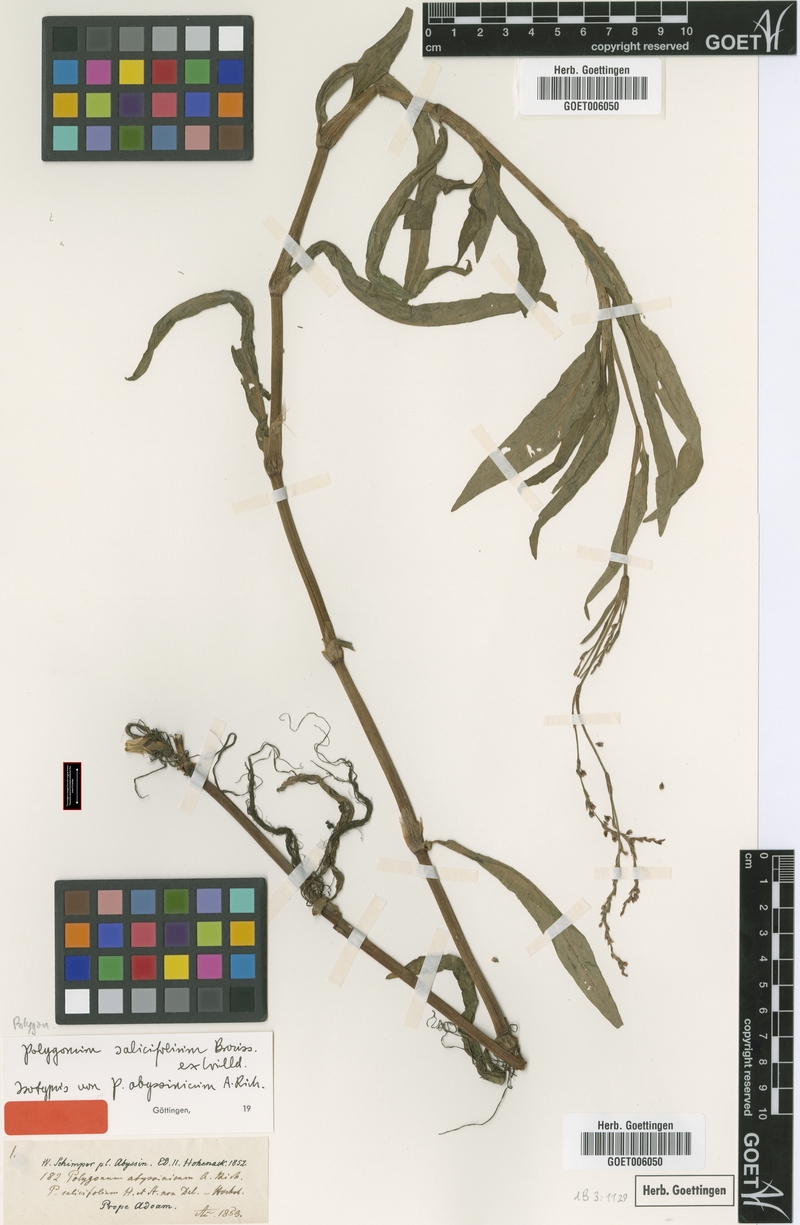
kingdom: Plantae
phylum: Tracheophyta
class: Magnoliopsida
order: Caryophyllales
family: Polygonaceae
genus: Persicaria
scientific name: Persicaria salicifolia
